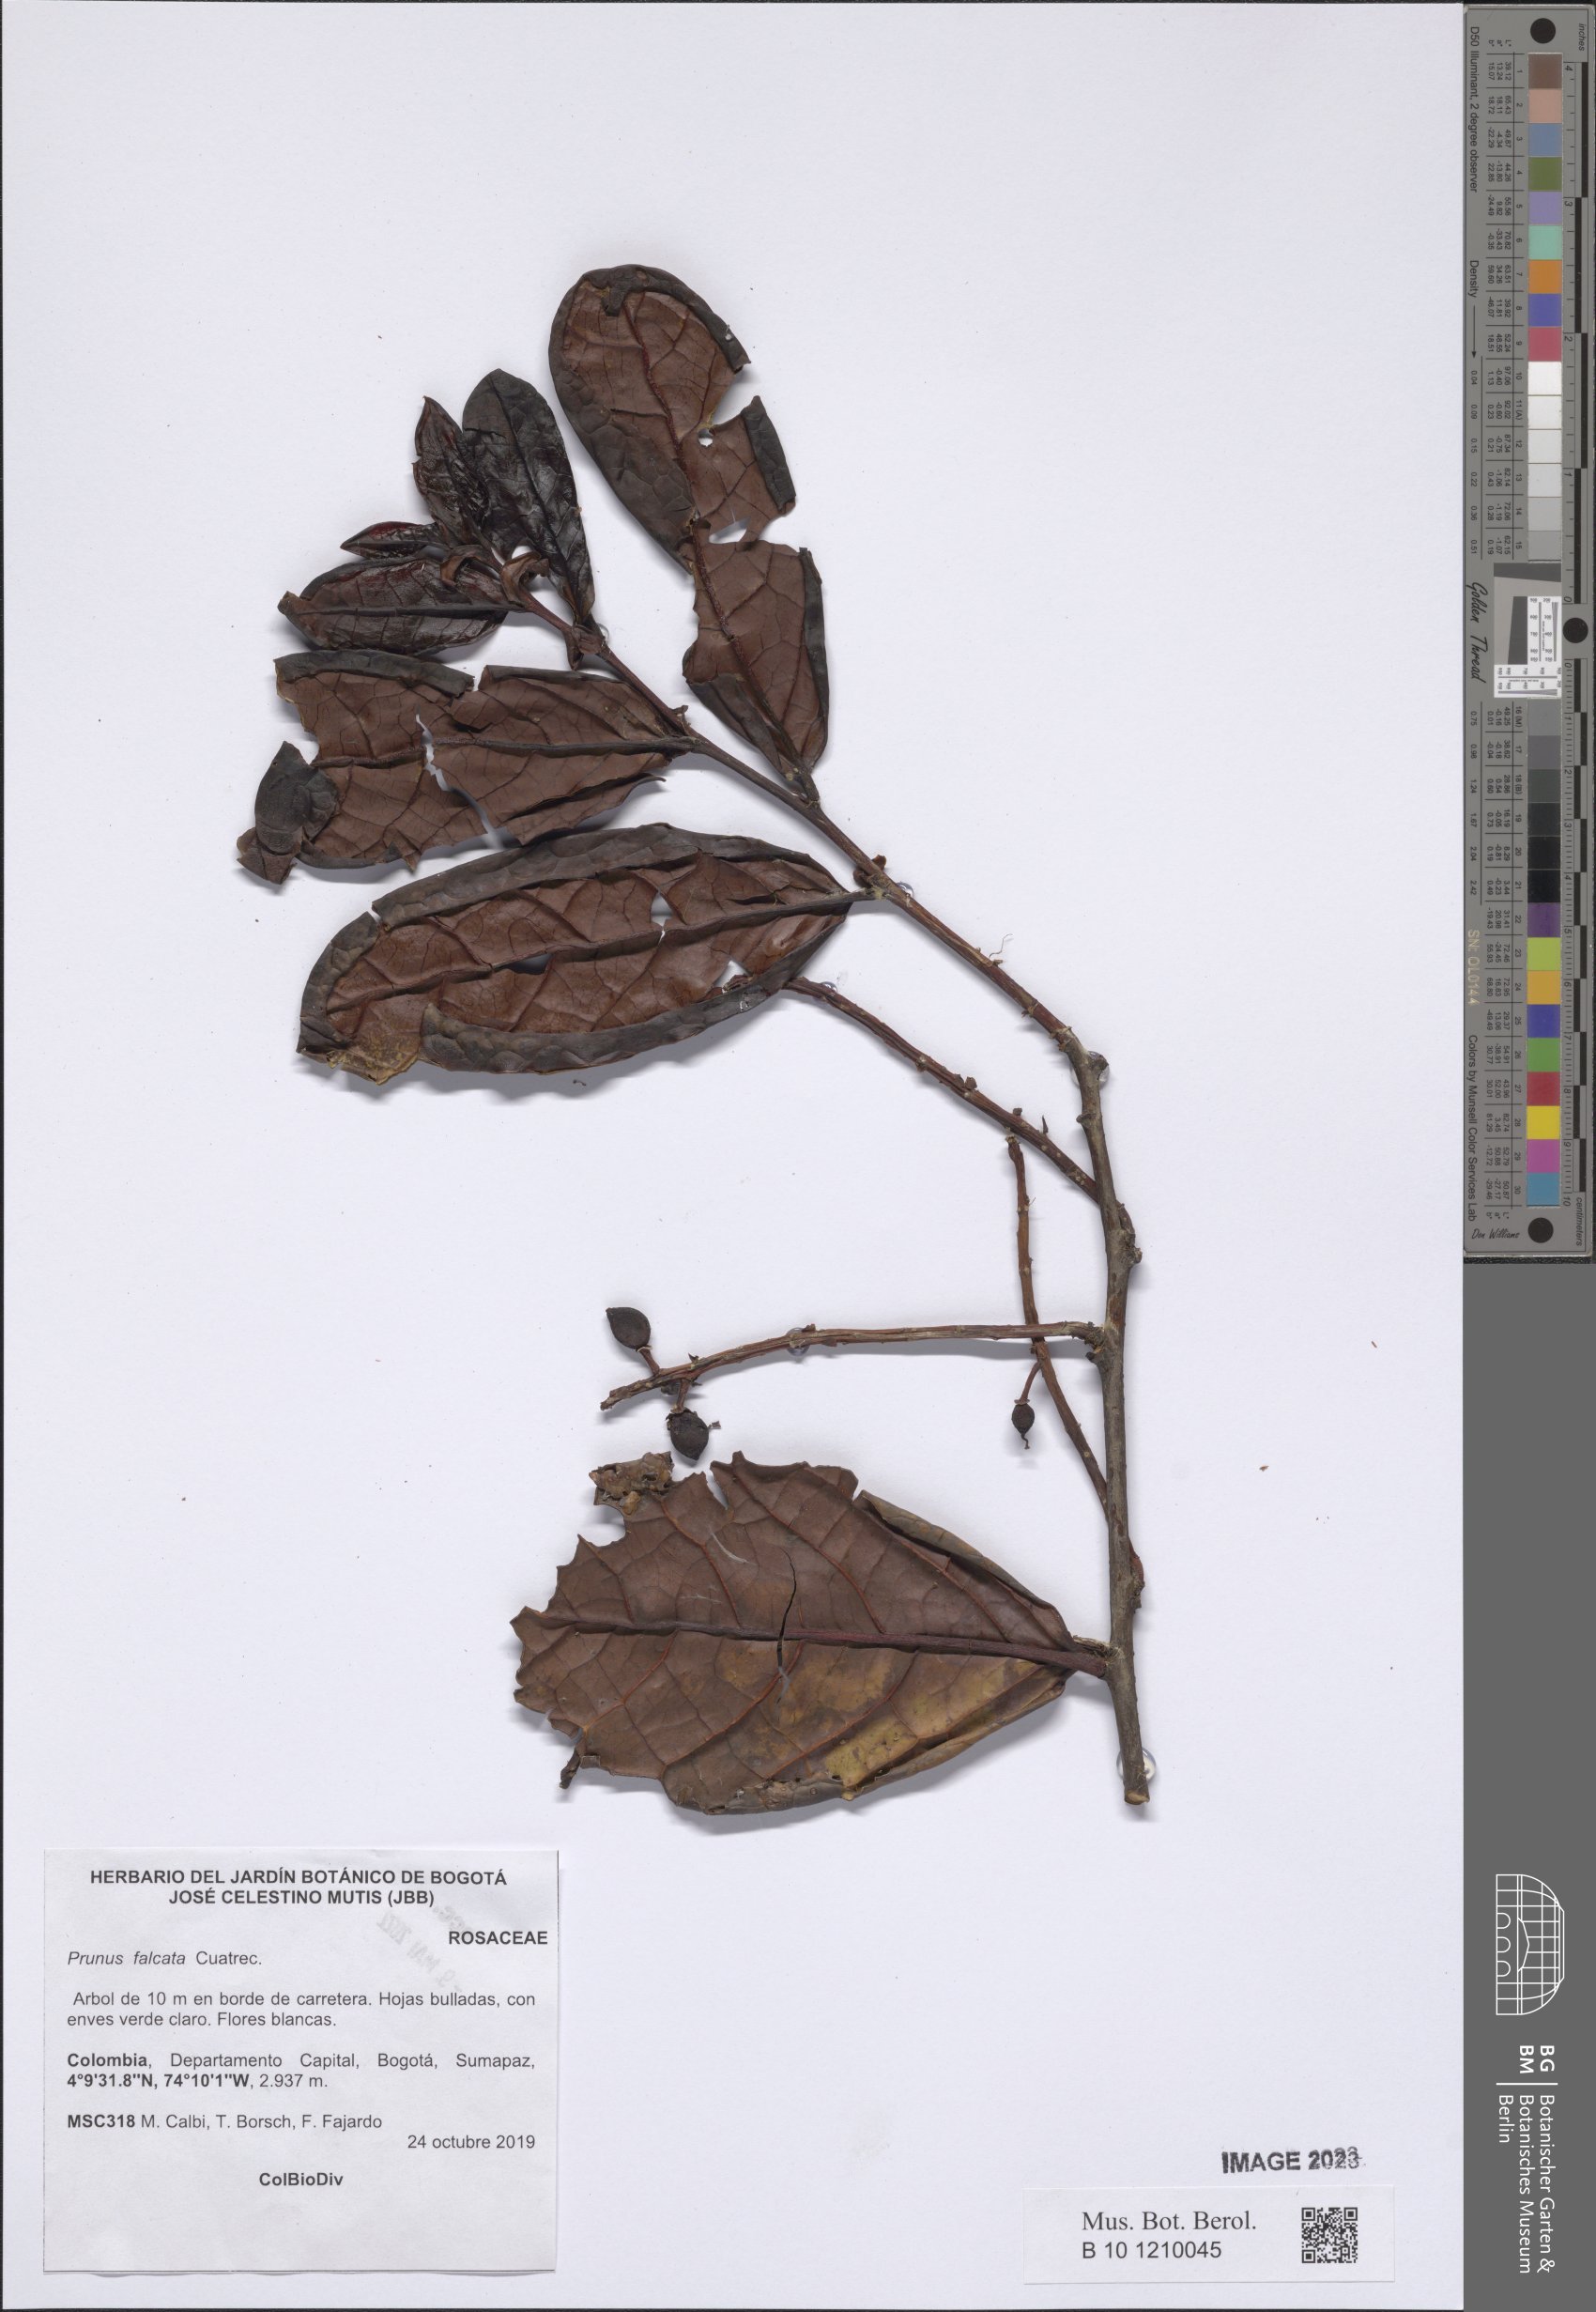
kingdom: Plantae
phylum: Tracheophyta
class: Magnoliopsida
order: Rosales
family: Rosaceae
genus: Prunus
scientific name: Prunus falcata
